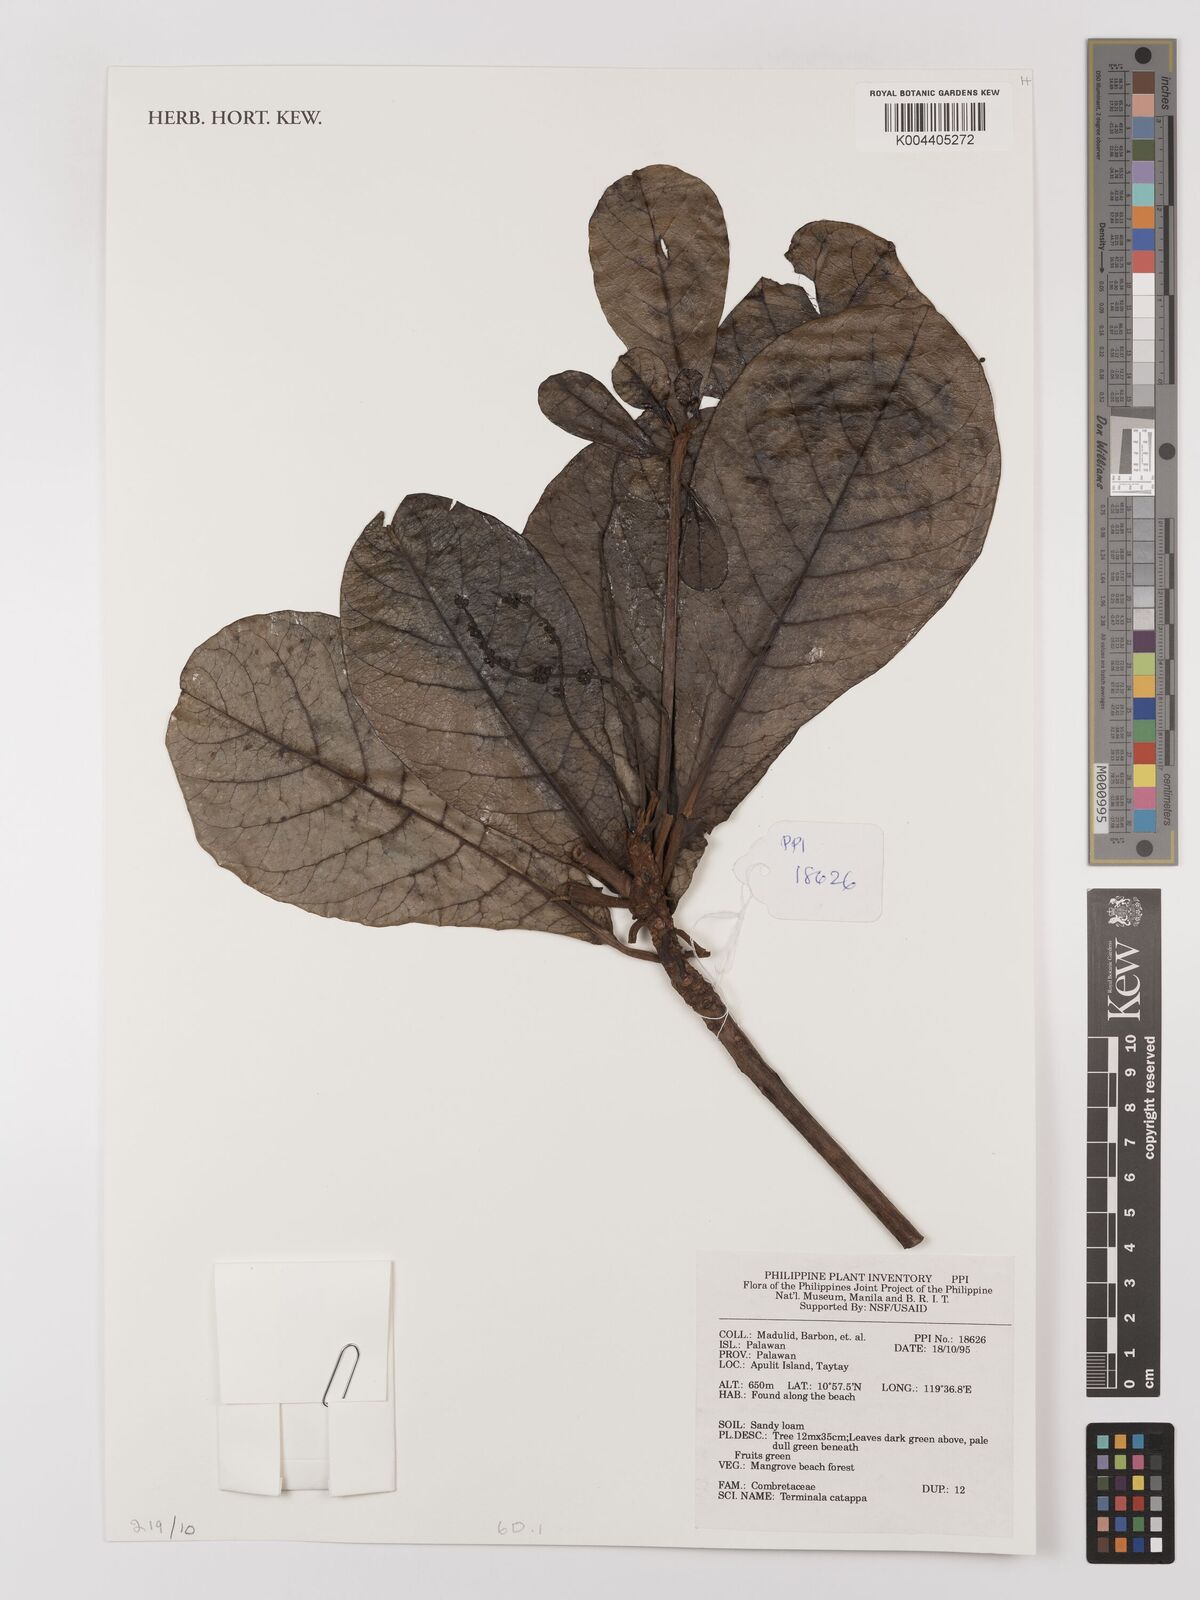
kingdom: Plantae
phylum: Tracheophyta
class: Magnoliopsida
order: Myrtales
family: Combretaceae
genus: Terminalia
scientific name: Terminalia catappa
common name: Tropical almond
